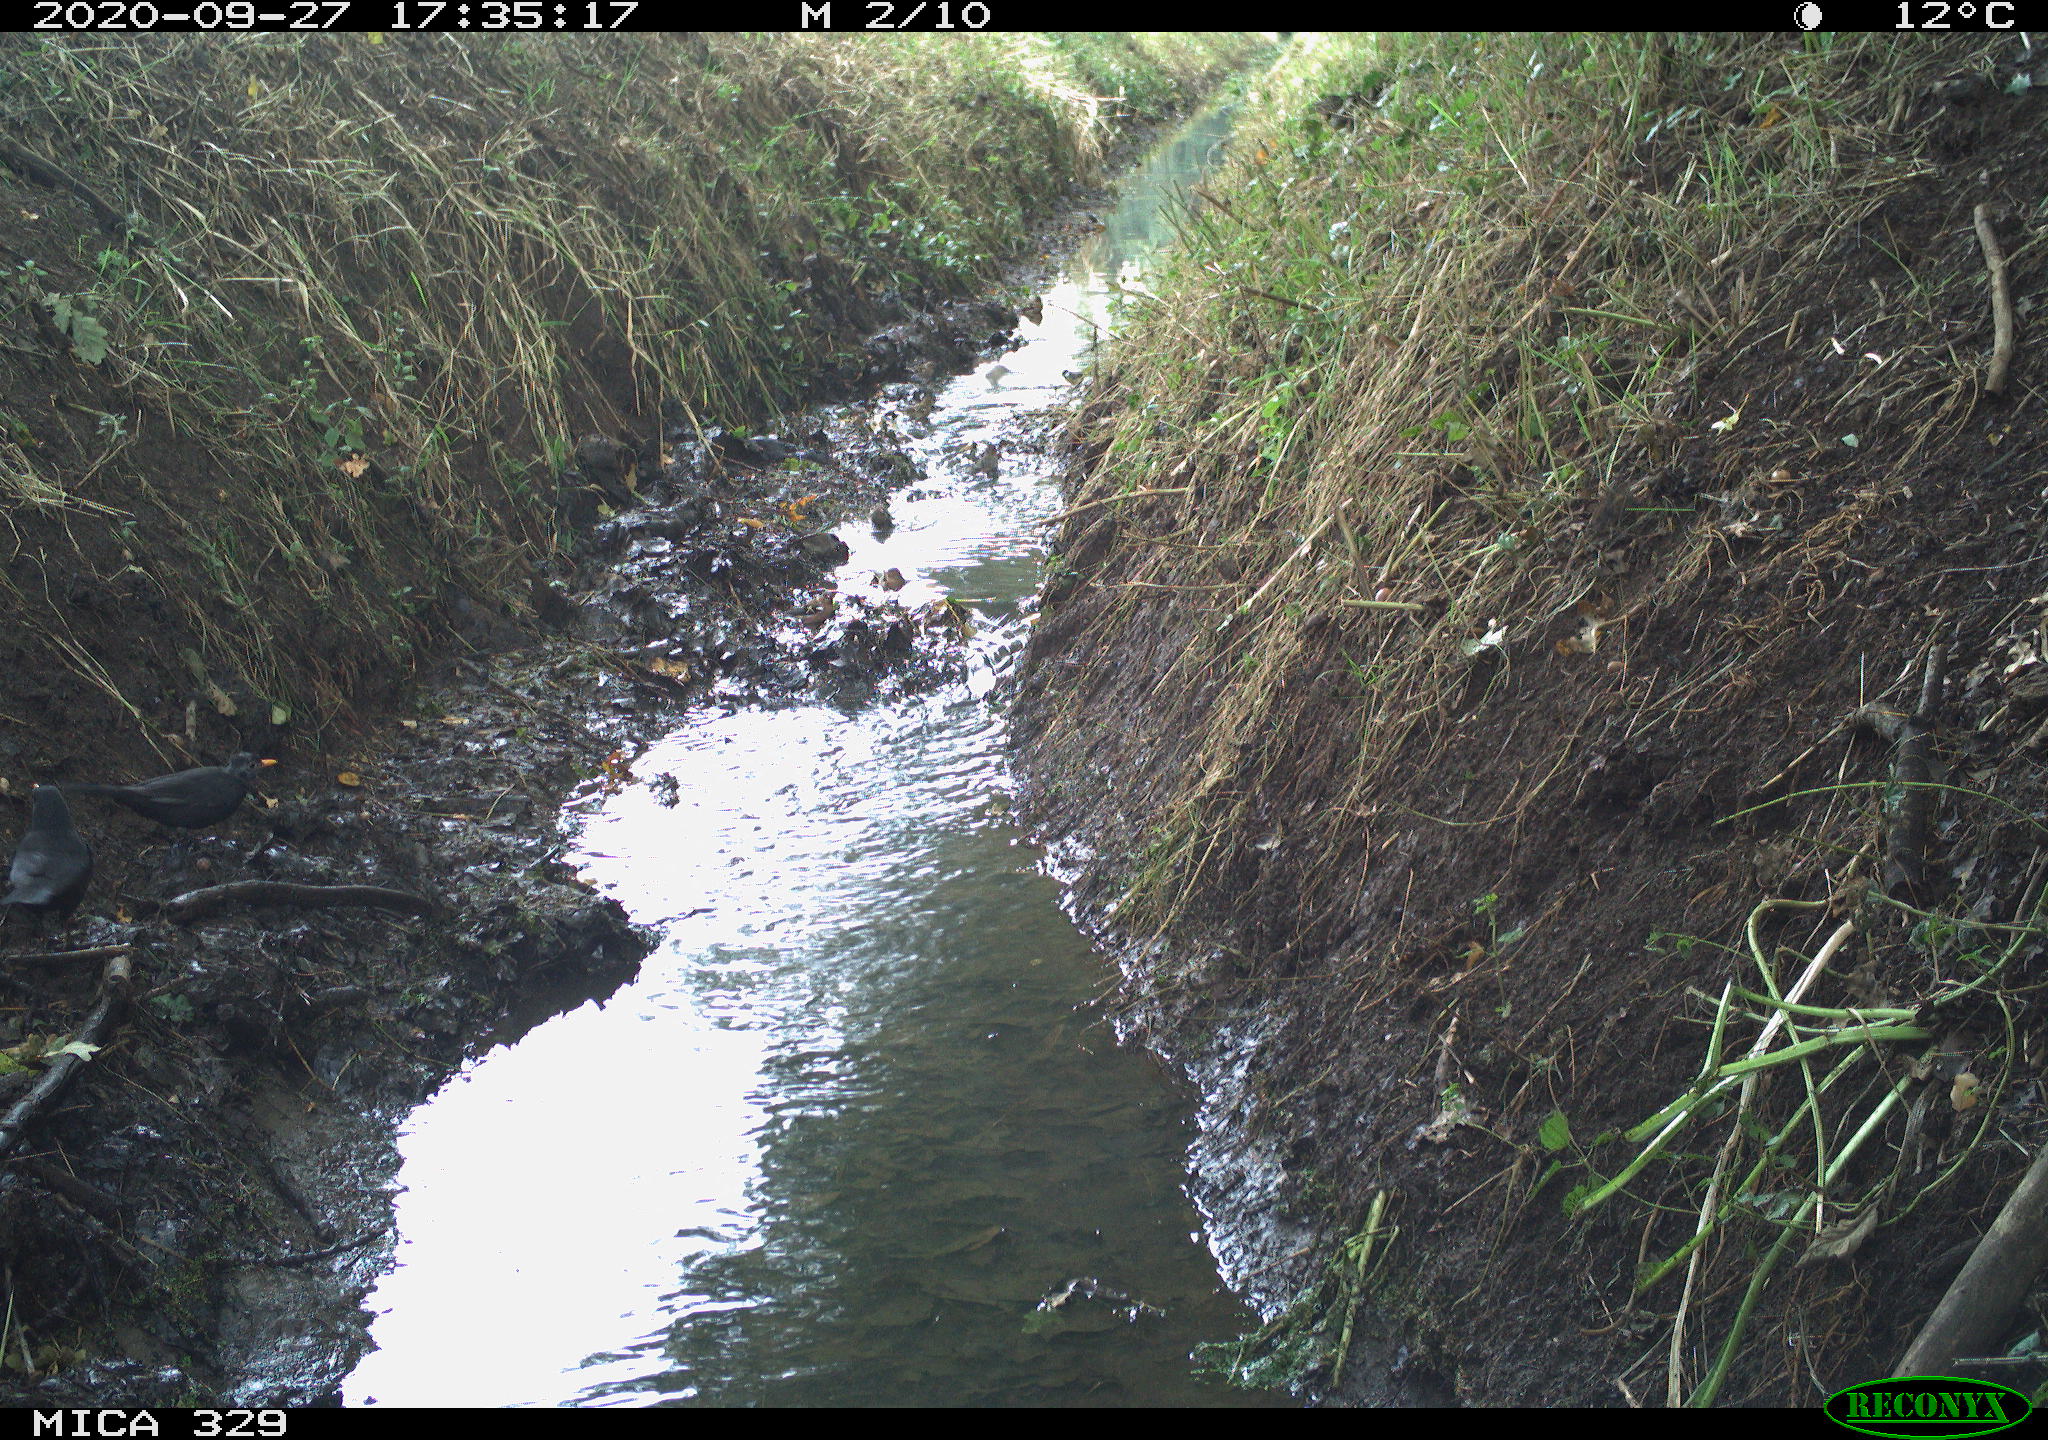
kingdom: Animalia
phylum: Chordata
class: Aves
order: Passeriformes
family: Turdidae
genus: Turdus
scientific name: Turdus merula
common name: Common blackbird
